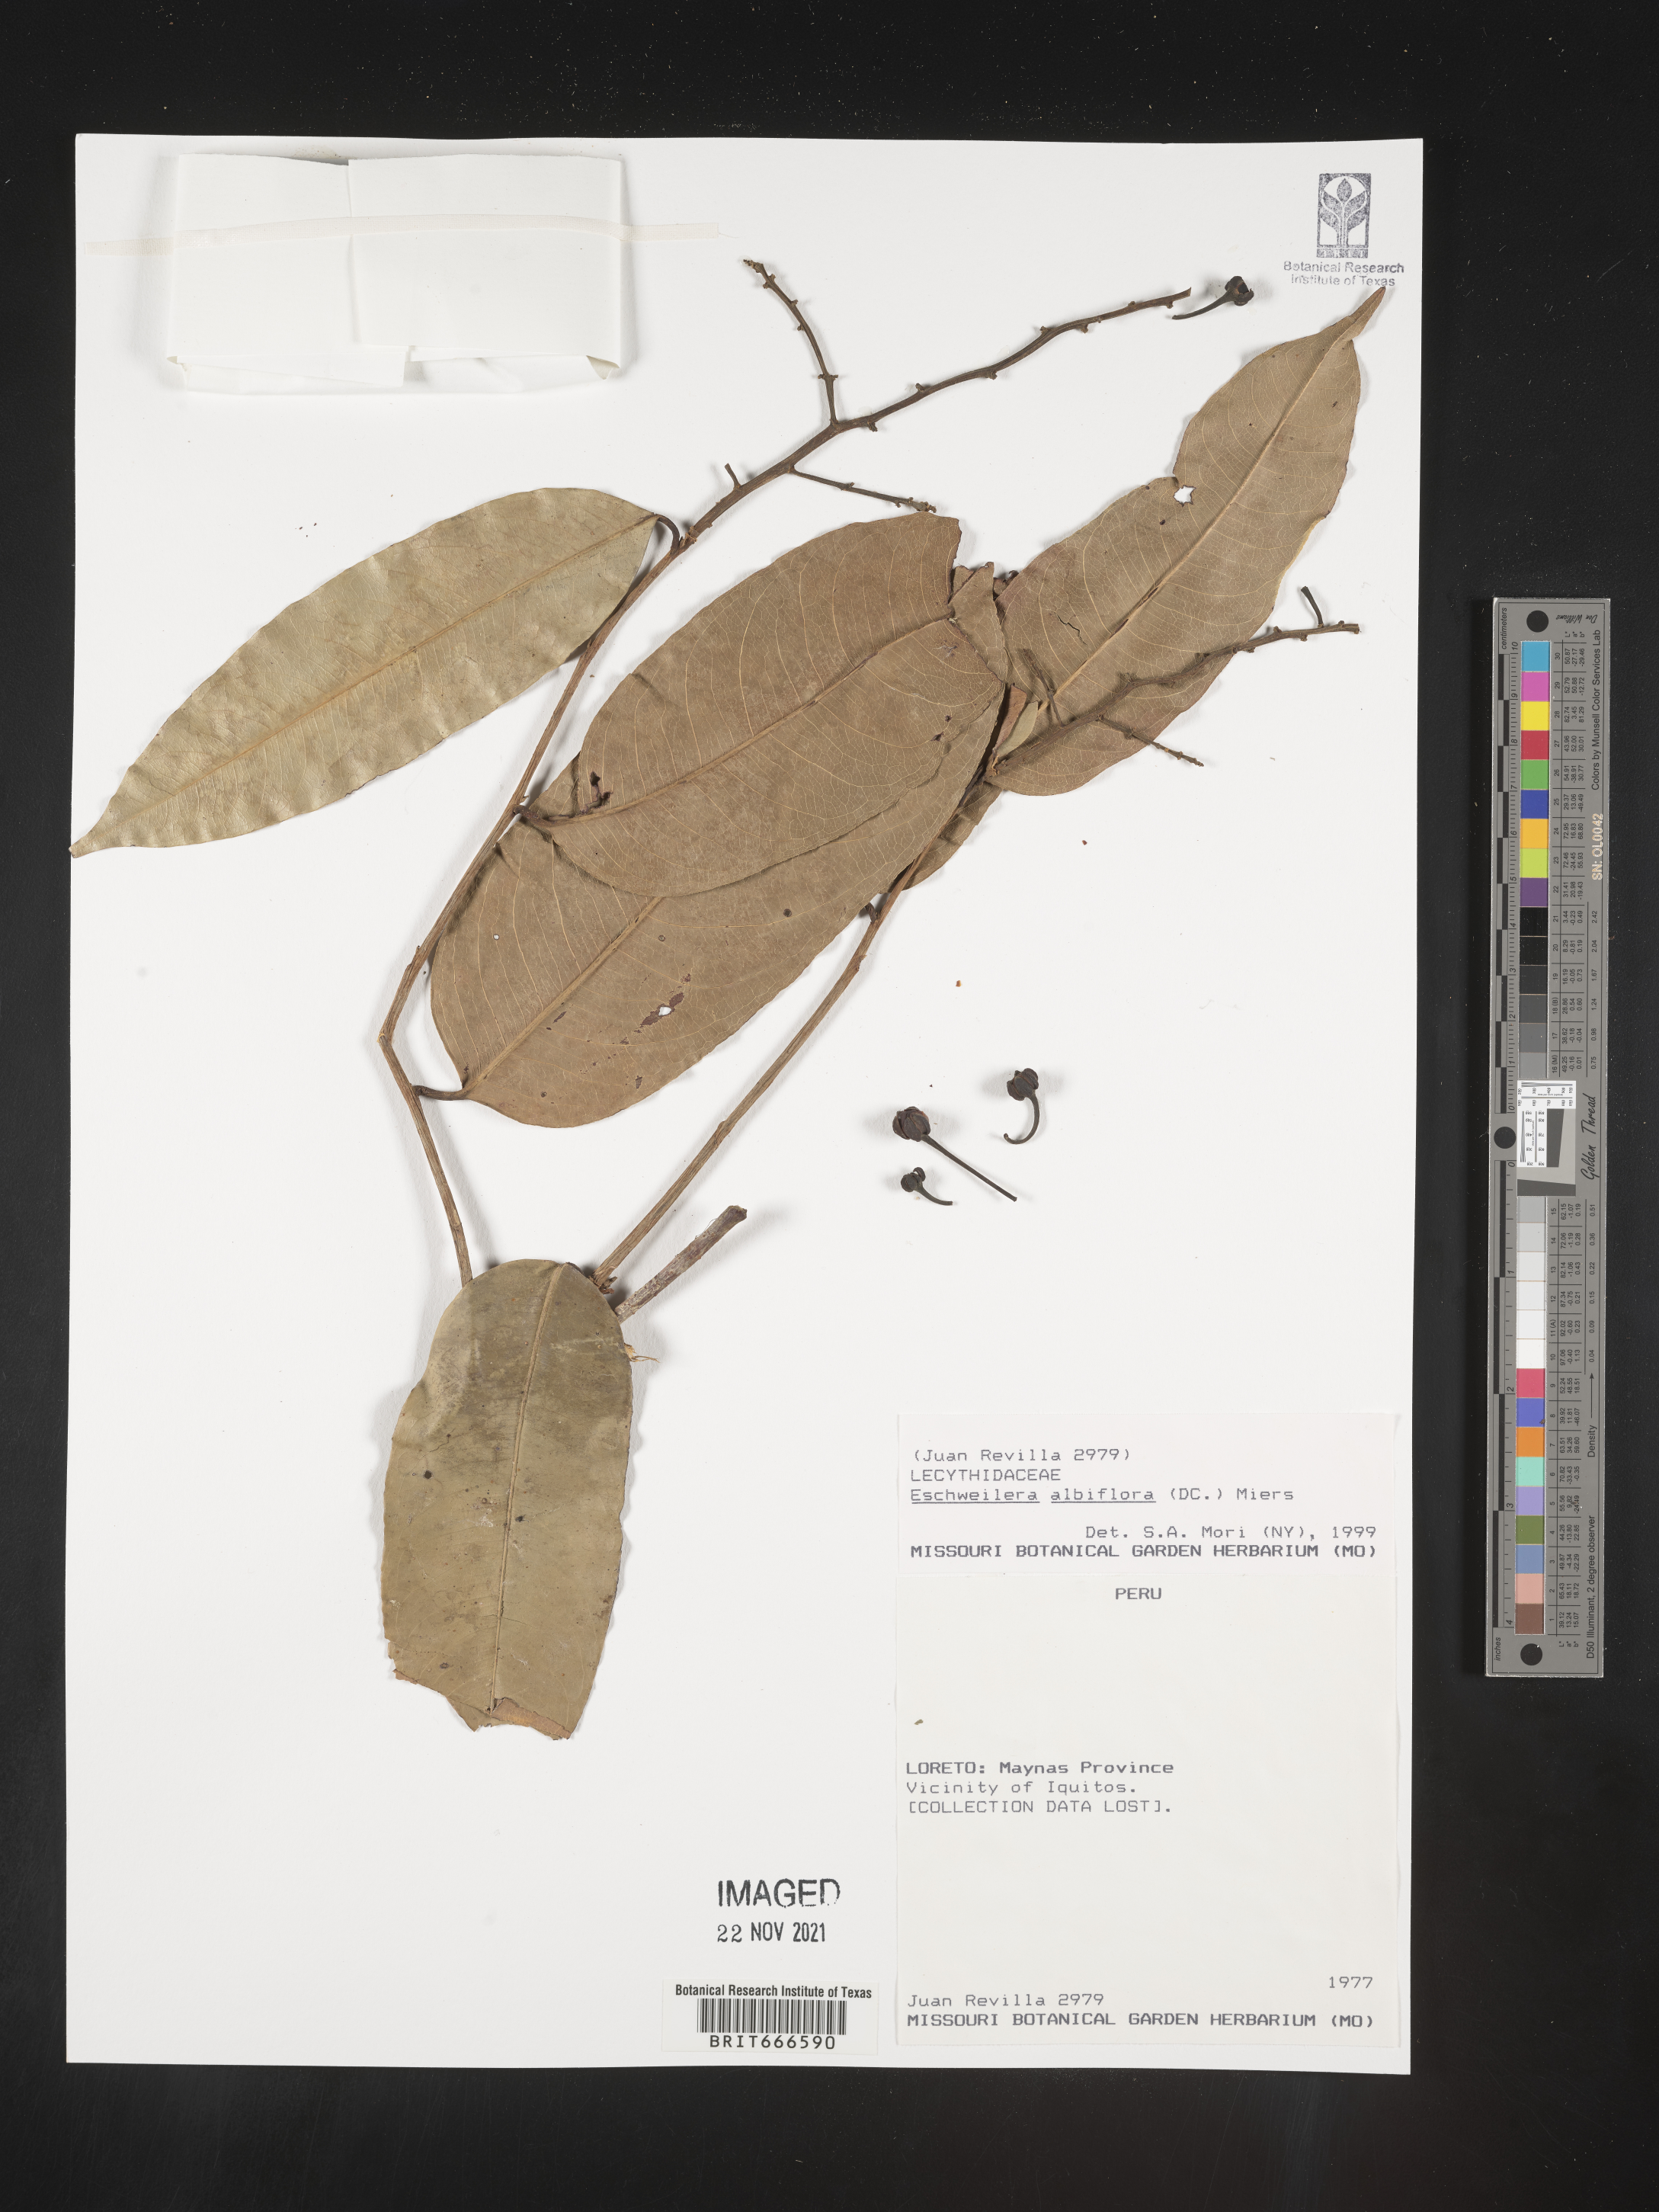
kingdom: Plantae
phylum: Tracheophyta
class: Magnoliopsida
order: Ericales
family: Lecythidaceae
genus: Eschweilera
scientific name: Eschweilera
